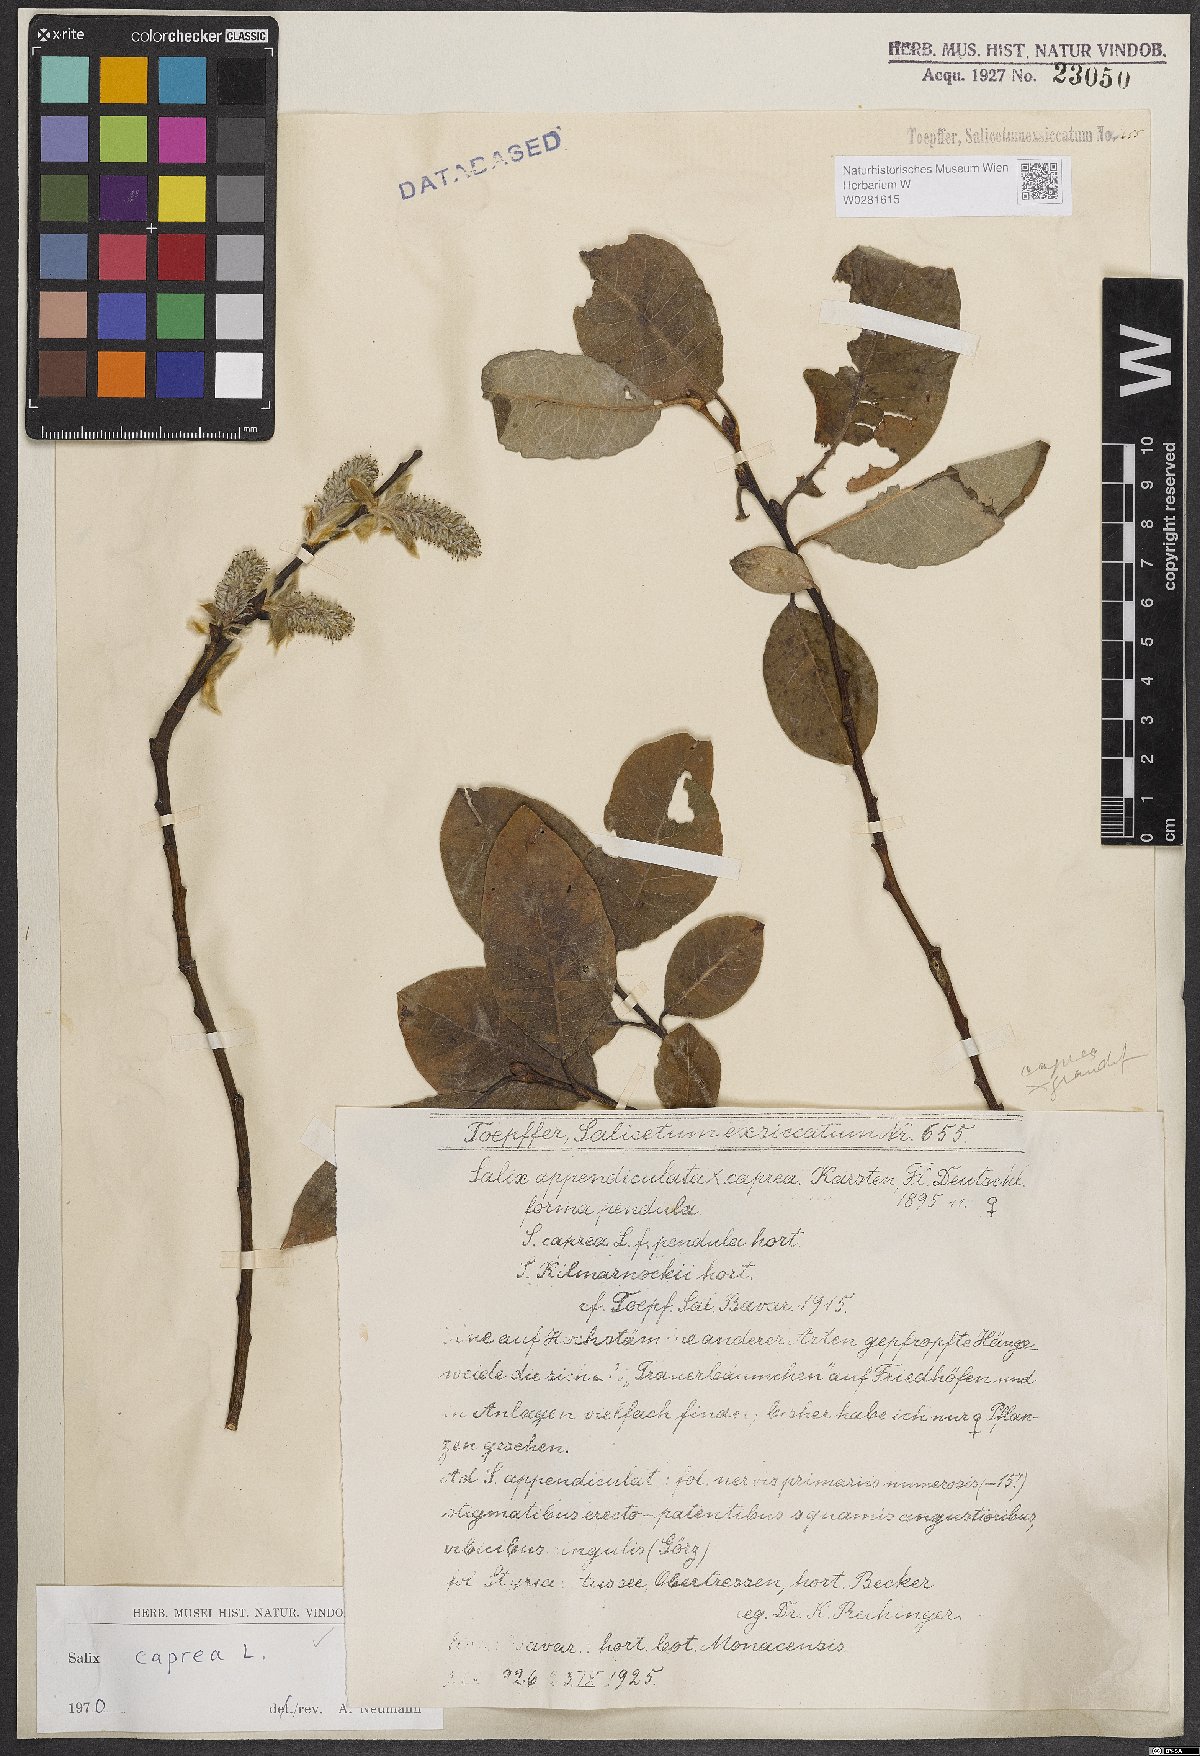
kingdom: Plantae
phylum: Tracheophyta
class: Magnoliopsida
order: Malpighiales
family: Salicaceae
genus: Salix
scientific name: Salix caprea
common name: Goat willow
